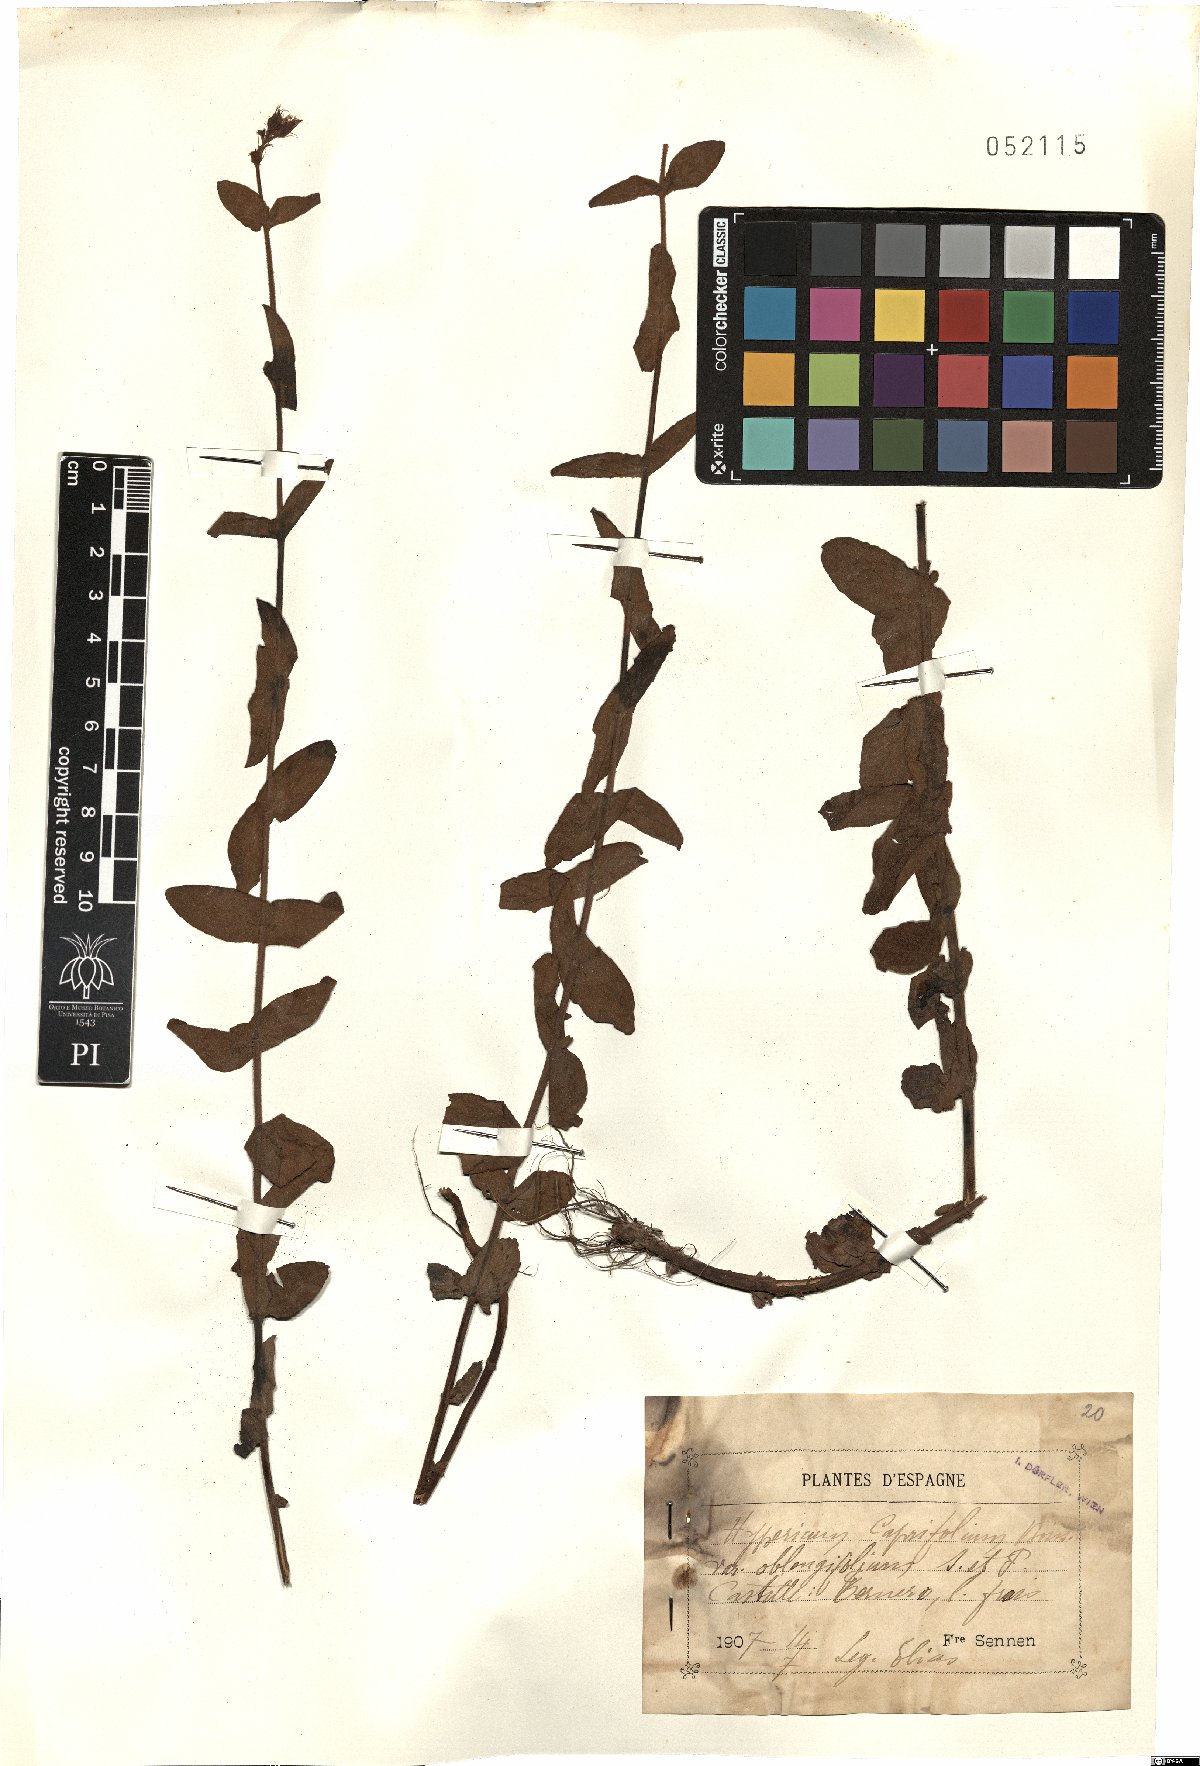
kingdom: Plantae
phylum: Tracheophyta
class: Magnoliopsida
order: Malpighiales
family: Hypericaceae
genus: Hypericum
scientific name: Hypericum caprifolium
